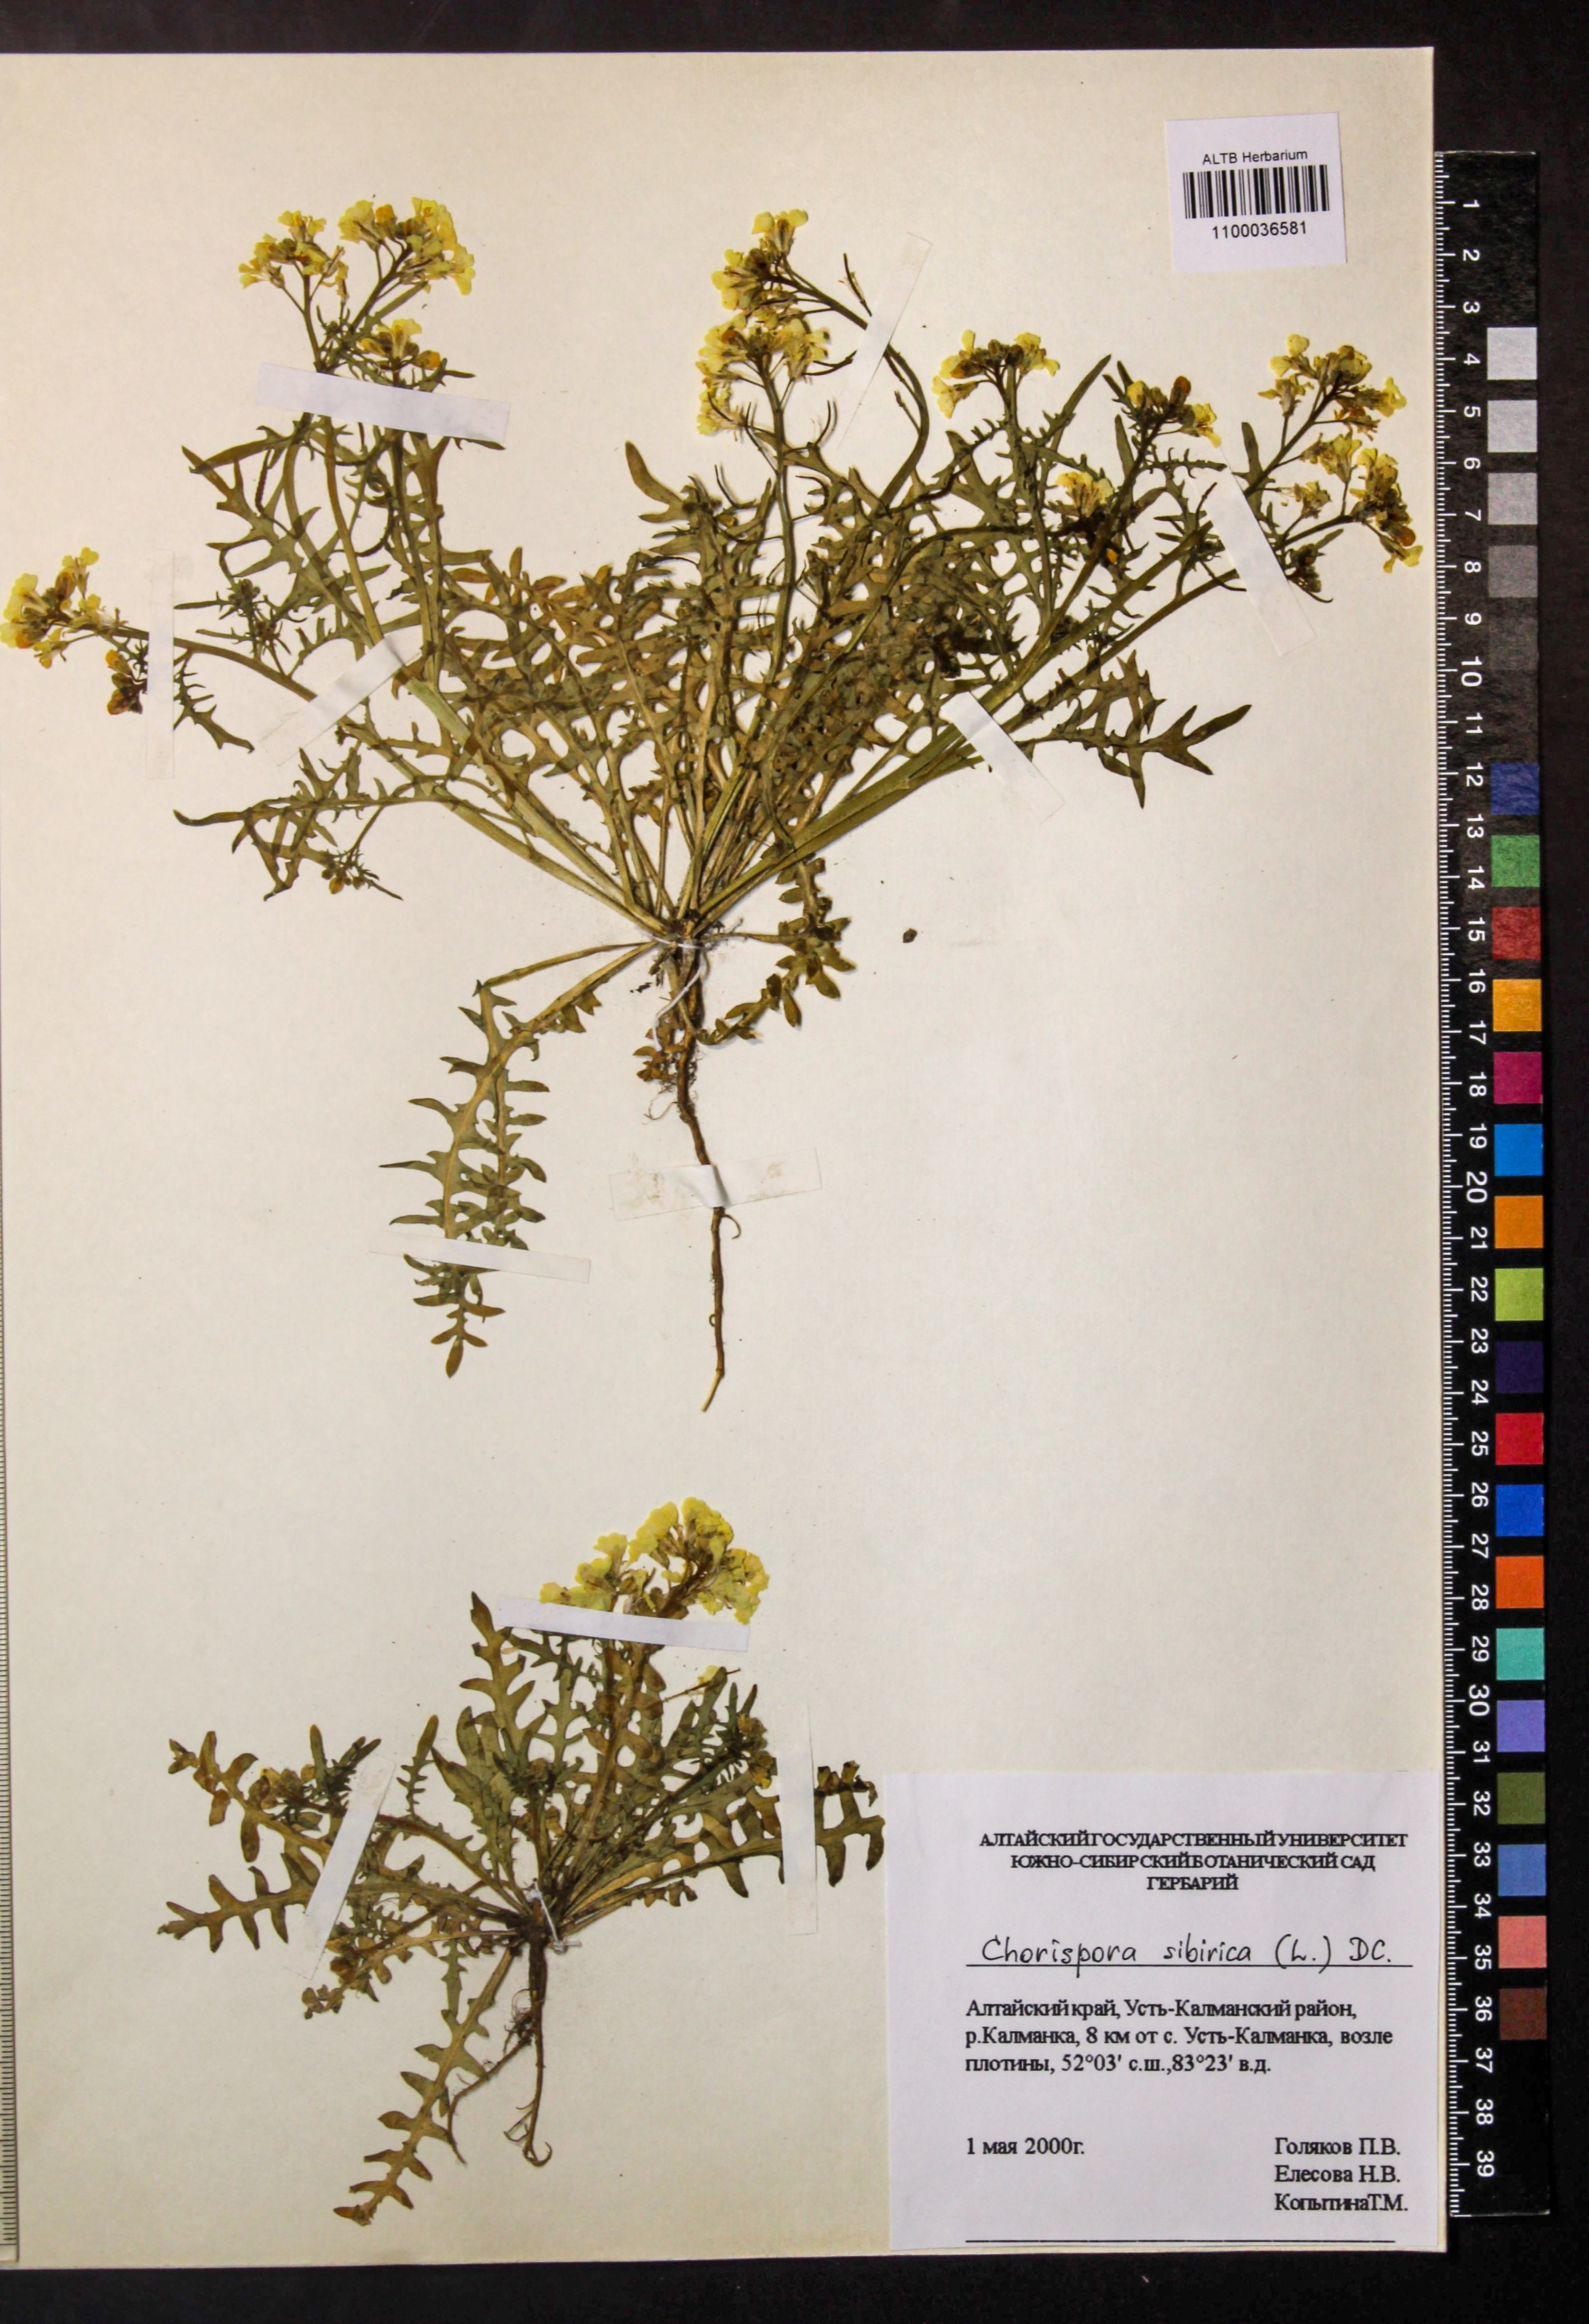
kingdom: Plantae
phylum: Tracheophyta
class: Magnoliopsida
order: Brassicales
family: Brassicaceae
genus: Chorispora
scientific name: Chorispora sibirica
